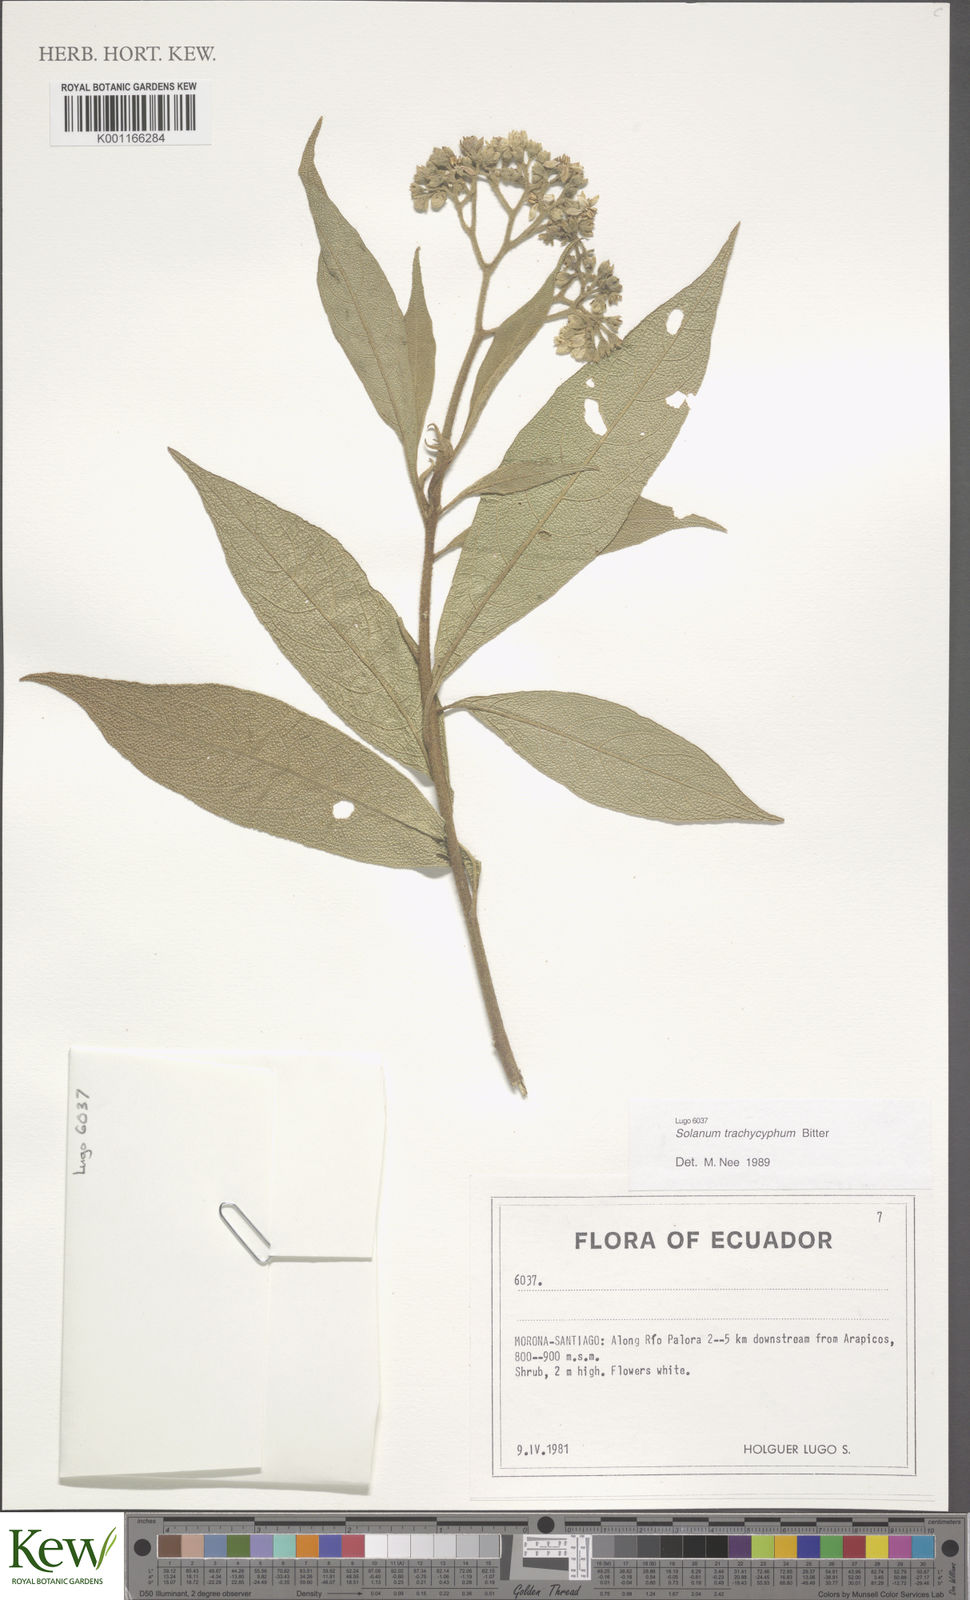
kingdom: Plantae
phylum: Tracheophyta
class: Magnoliopsida
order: Solanales
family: Solanaceae
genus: Solanum
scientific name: Solanum trachycyphum
